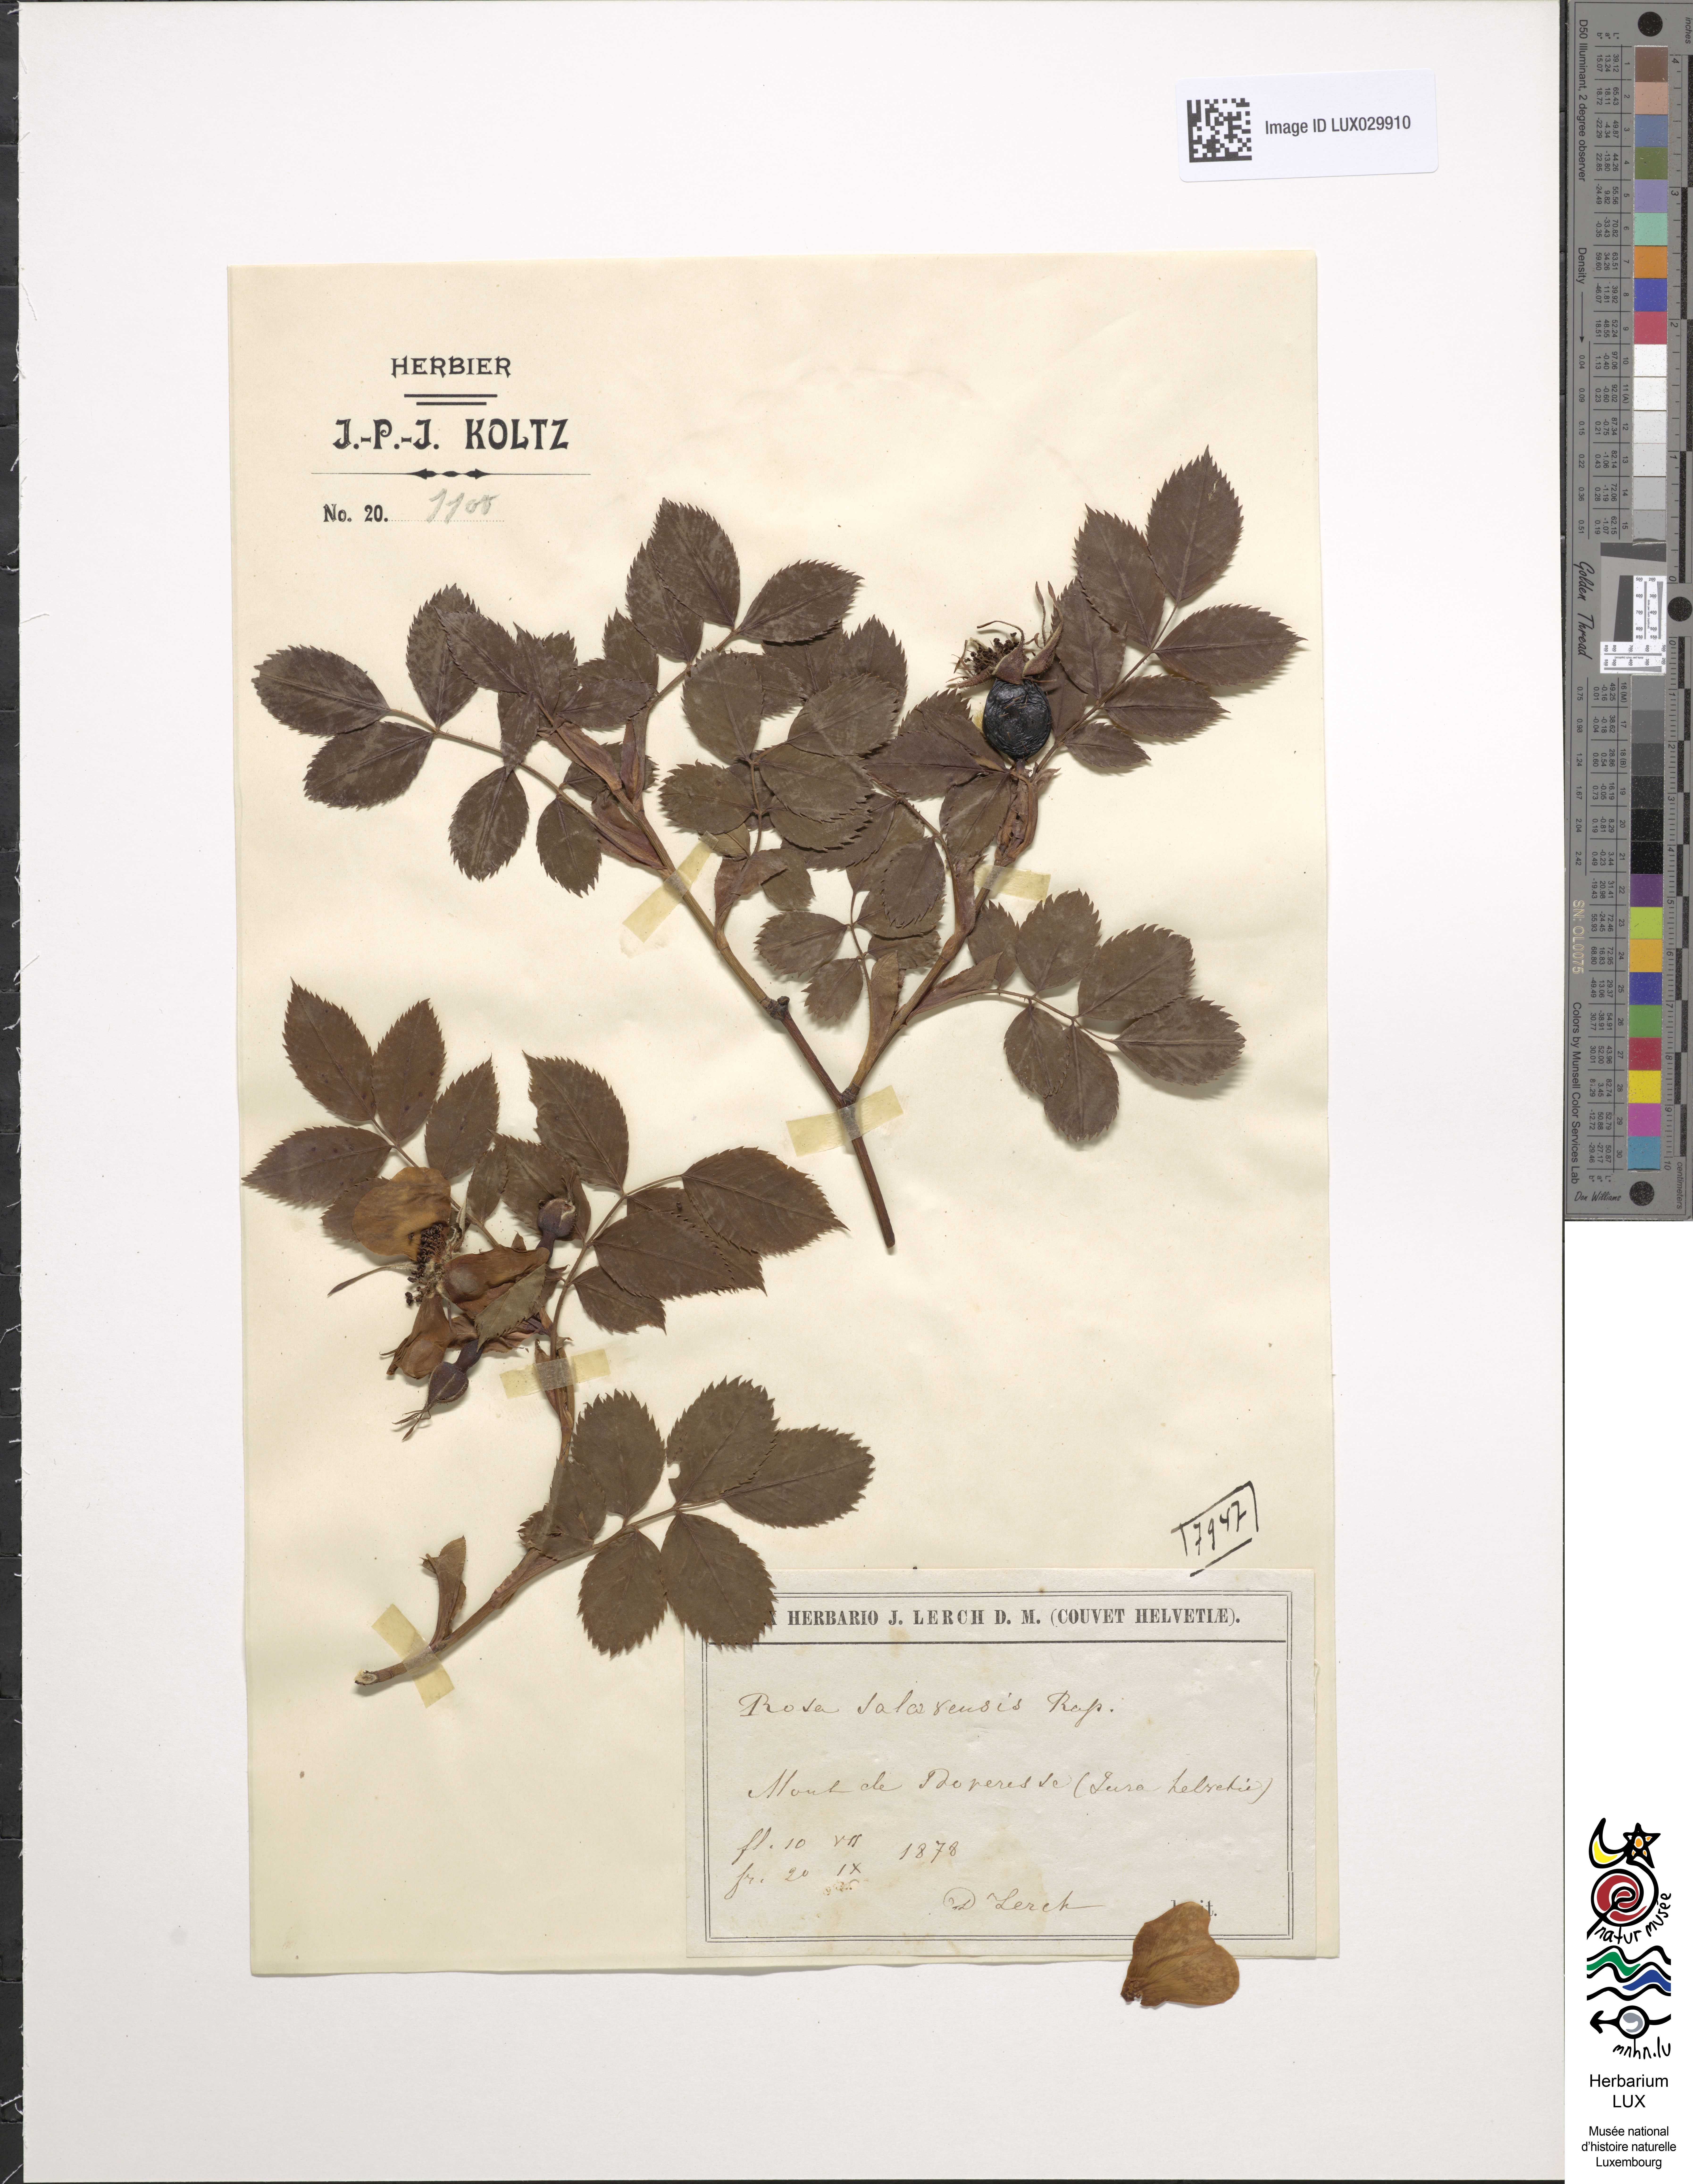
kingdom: Plantae
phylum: Tracheophyta
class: Magnoliopsida
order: Rosales
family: Rosaceae
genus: Rosa
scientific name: Rosa
